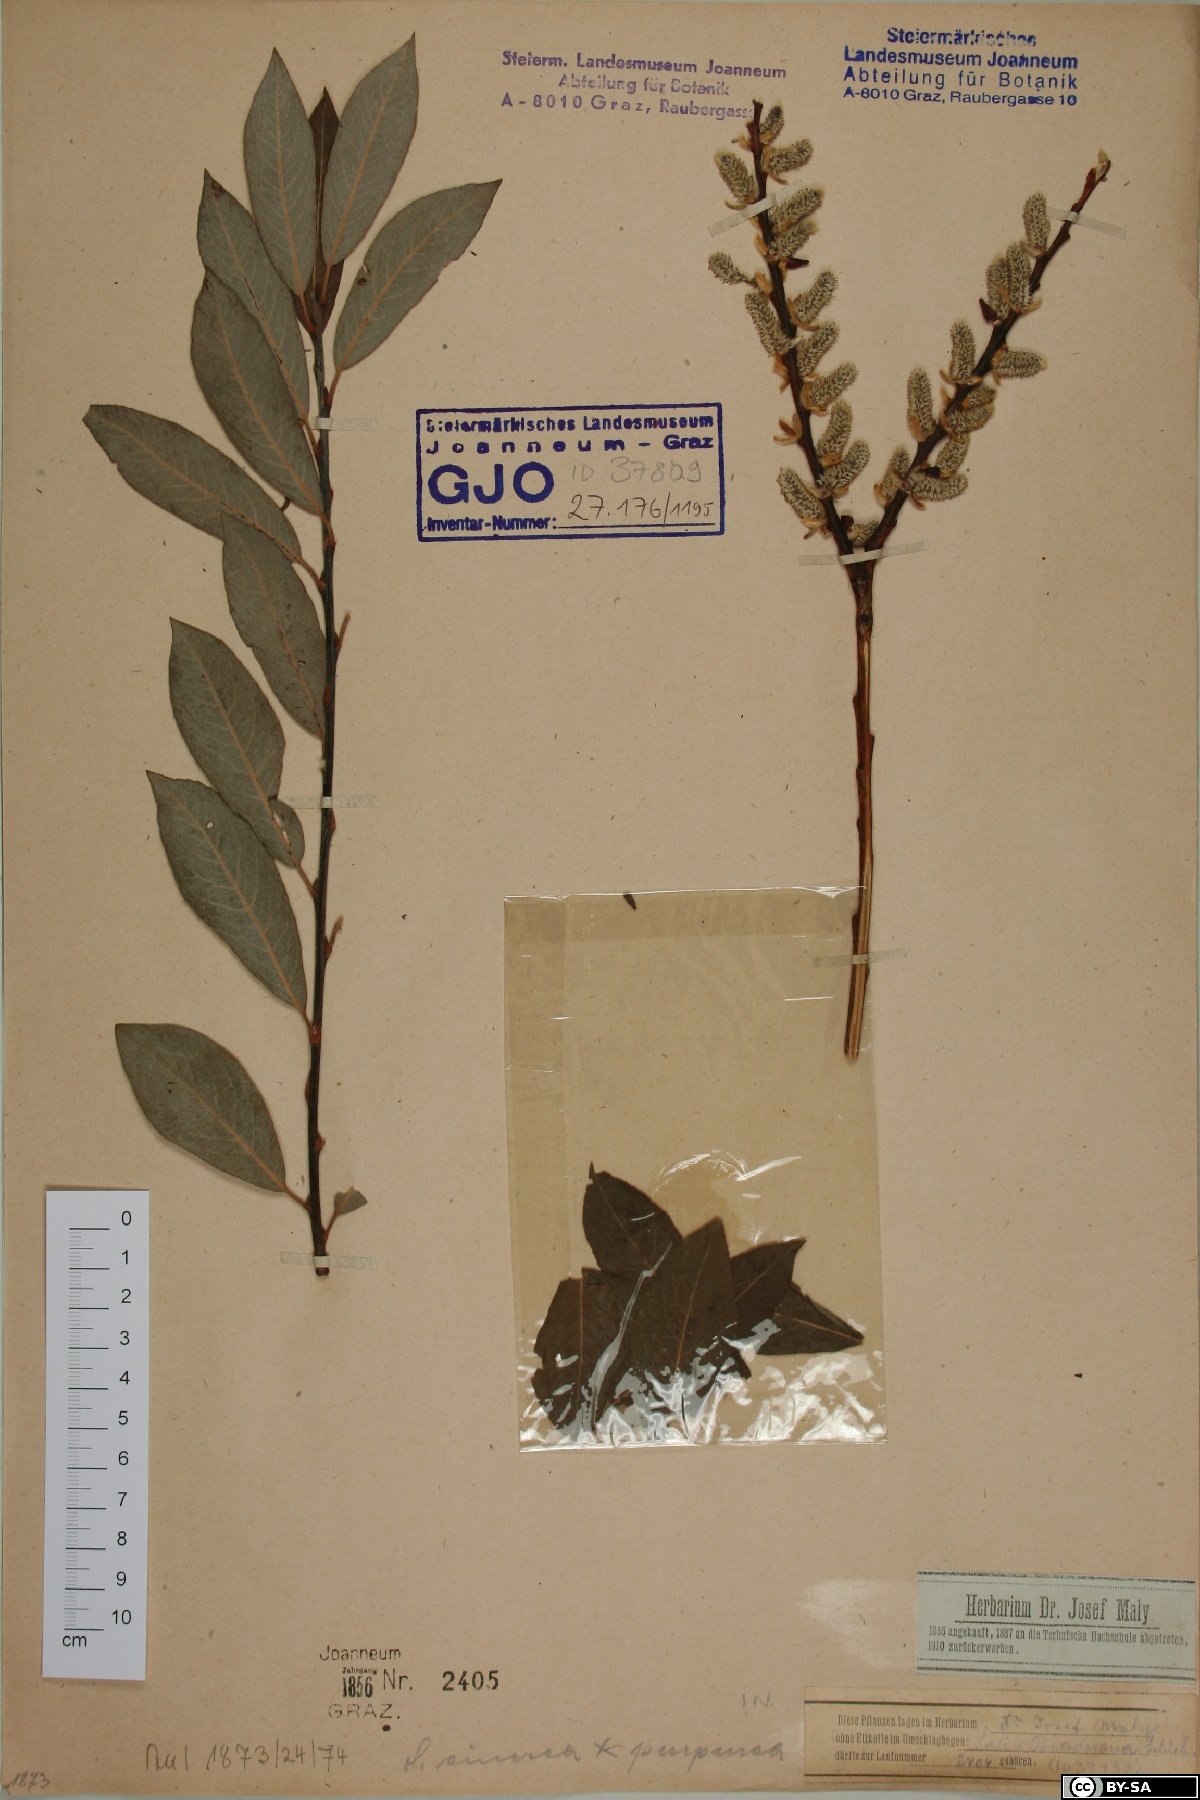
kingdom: Plantae
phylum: Tracheophyta
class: Magnoliopsida
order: Malpighiales
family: Salicaceae
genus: Salix
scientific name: Salix pontederana
